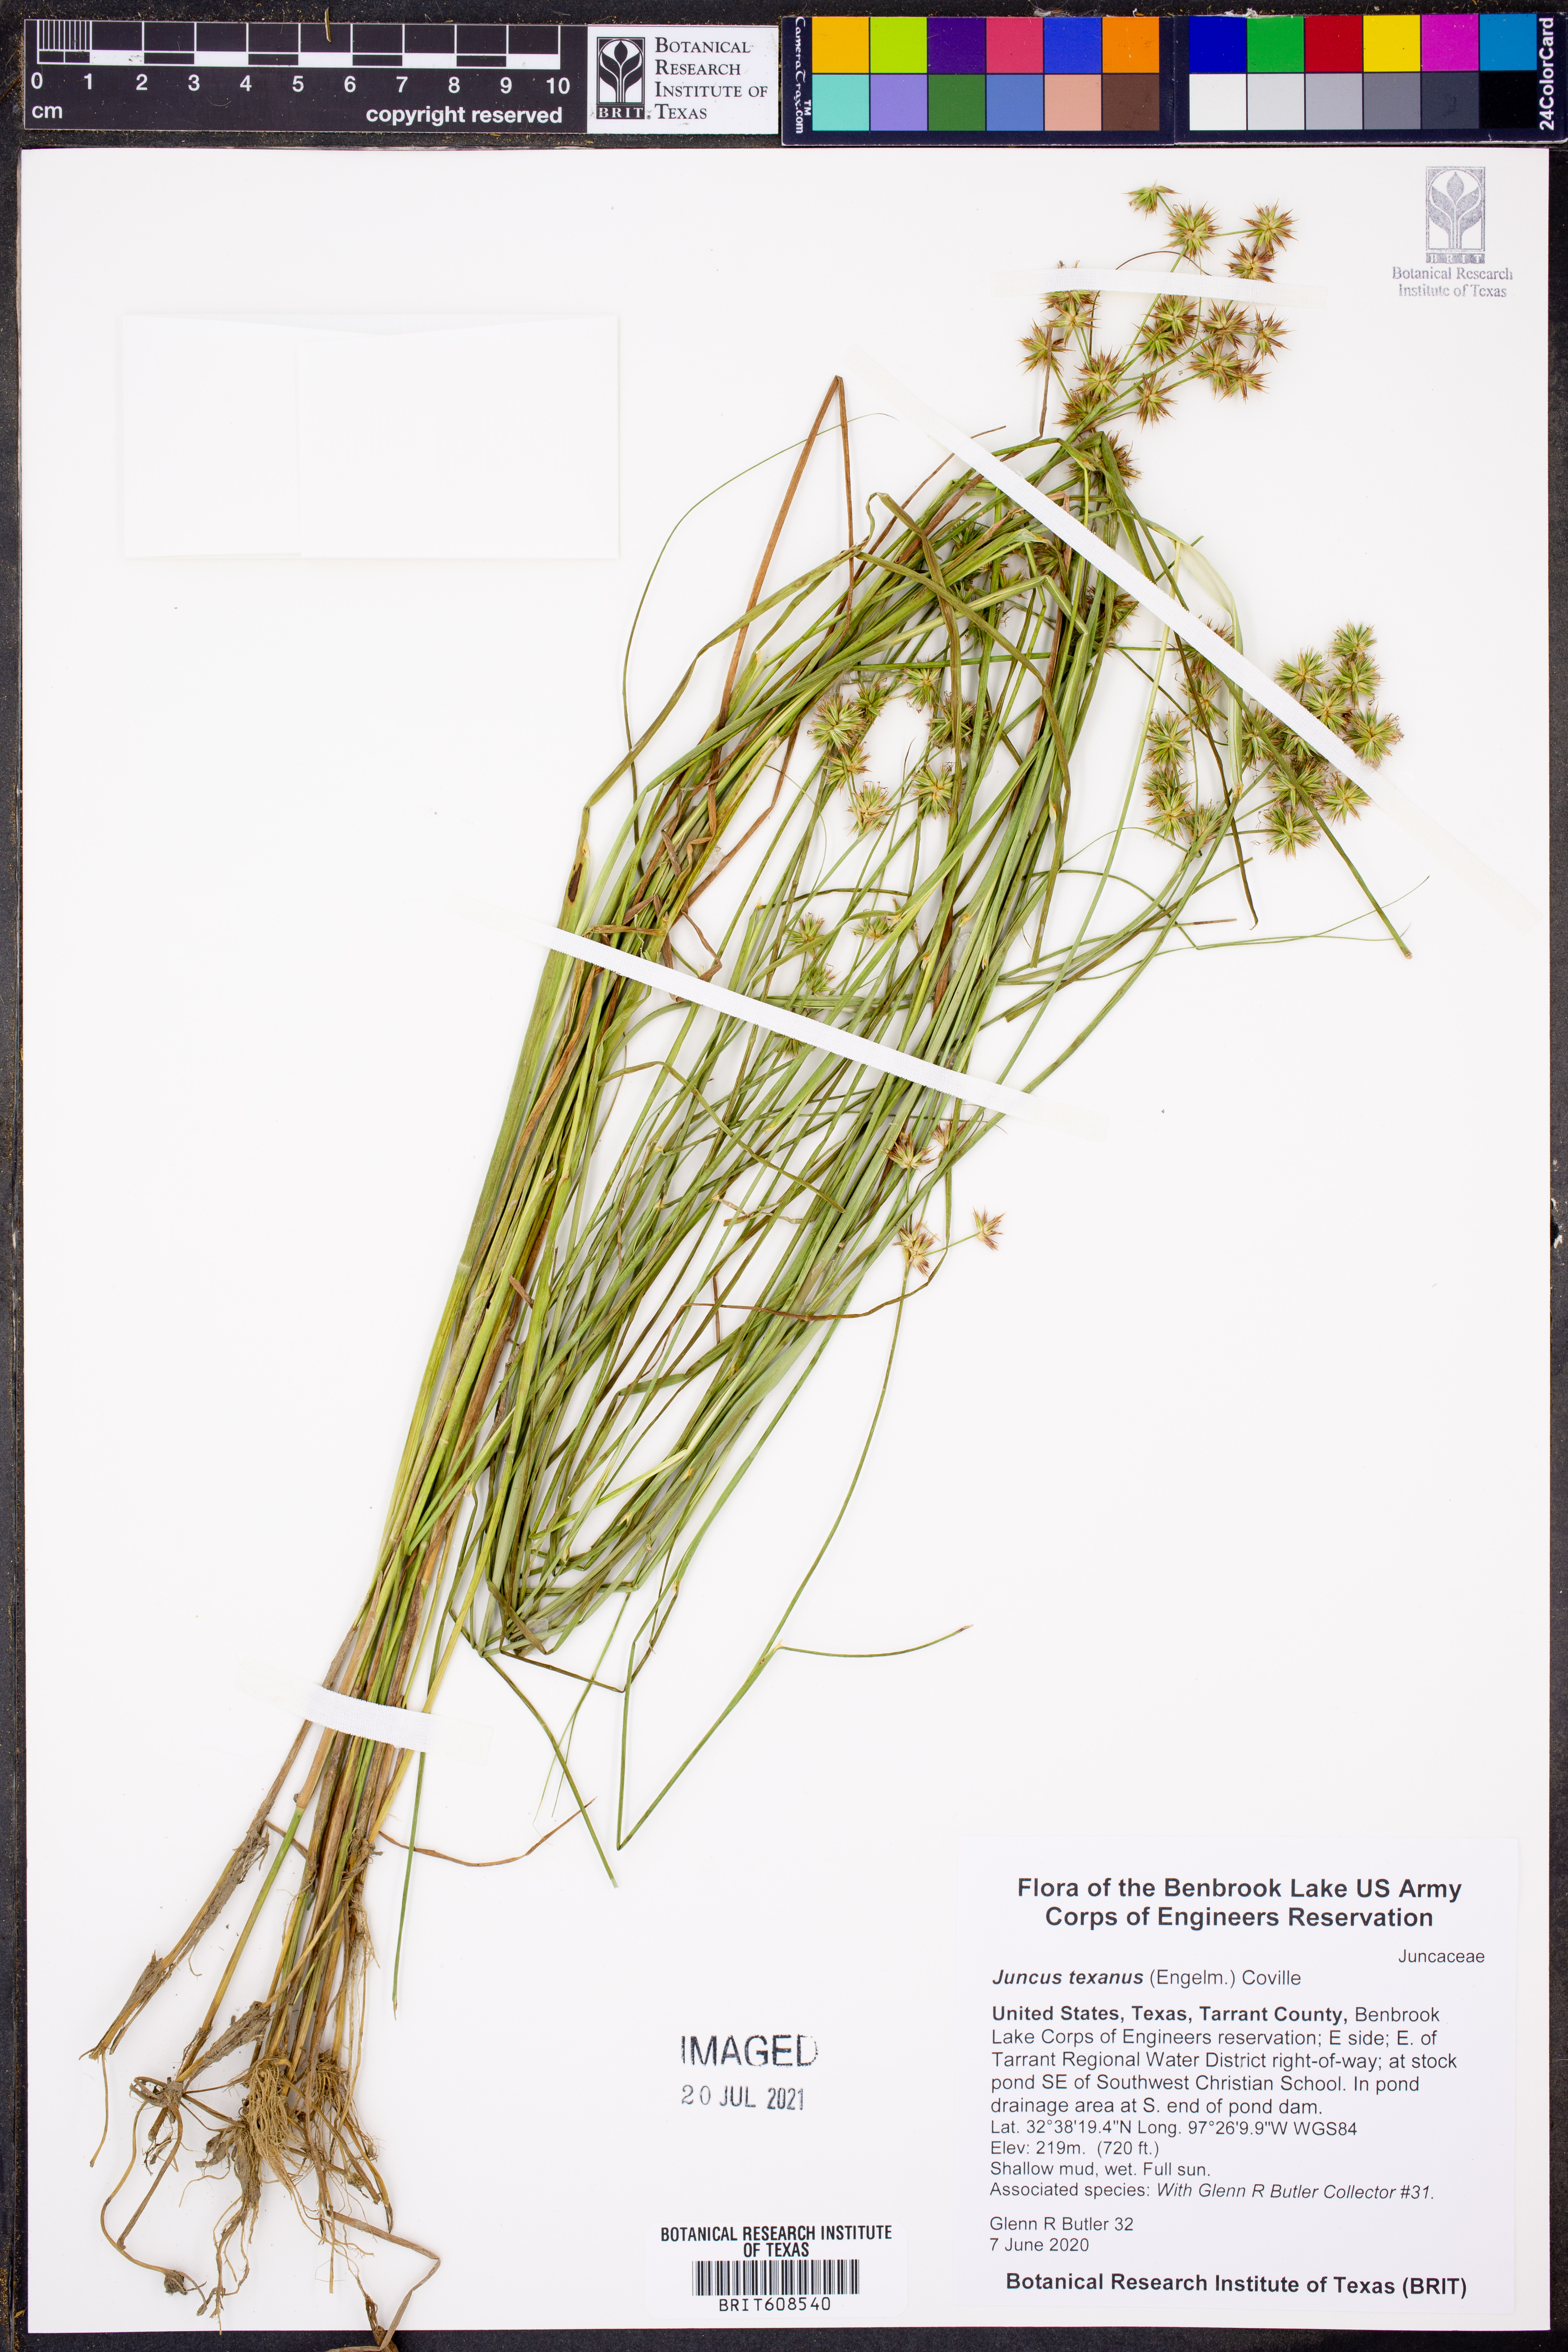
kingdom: Plantae
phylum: Tracheophyta
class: Liliopsida
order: Poales
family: Juncaceae
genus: Juncus
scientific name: Juncus texanus
